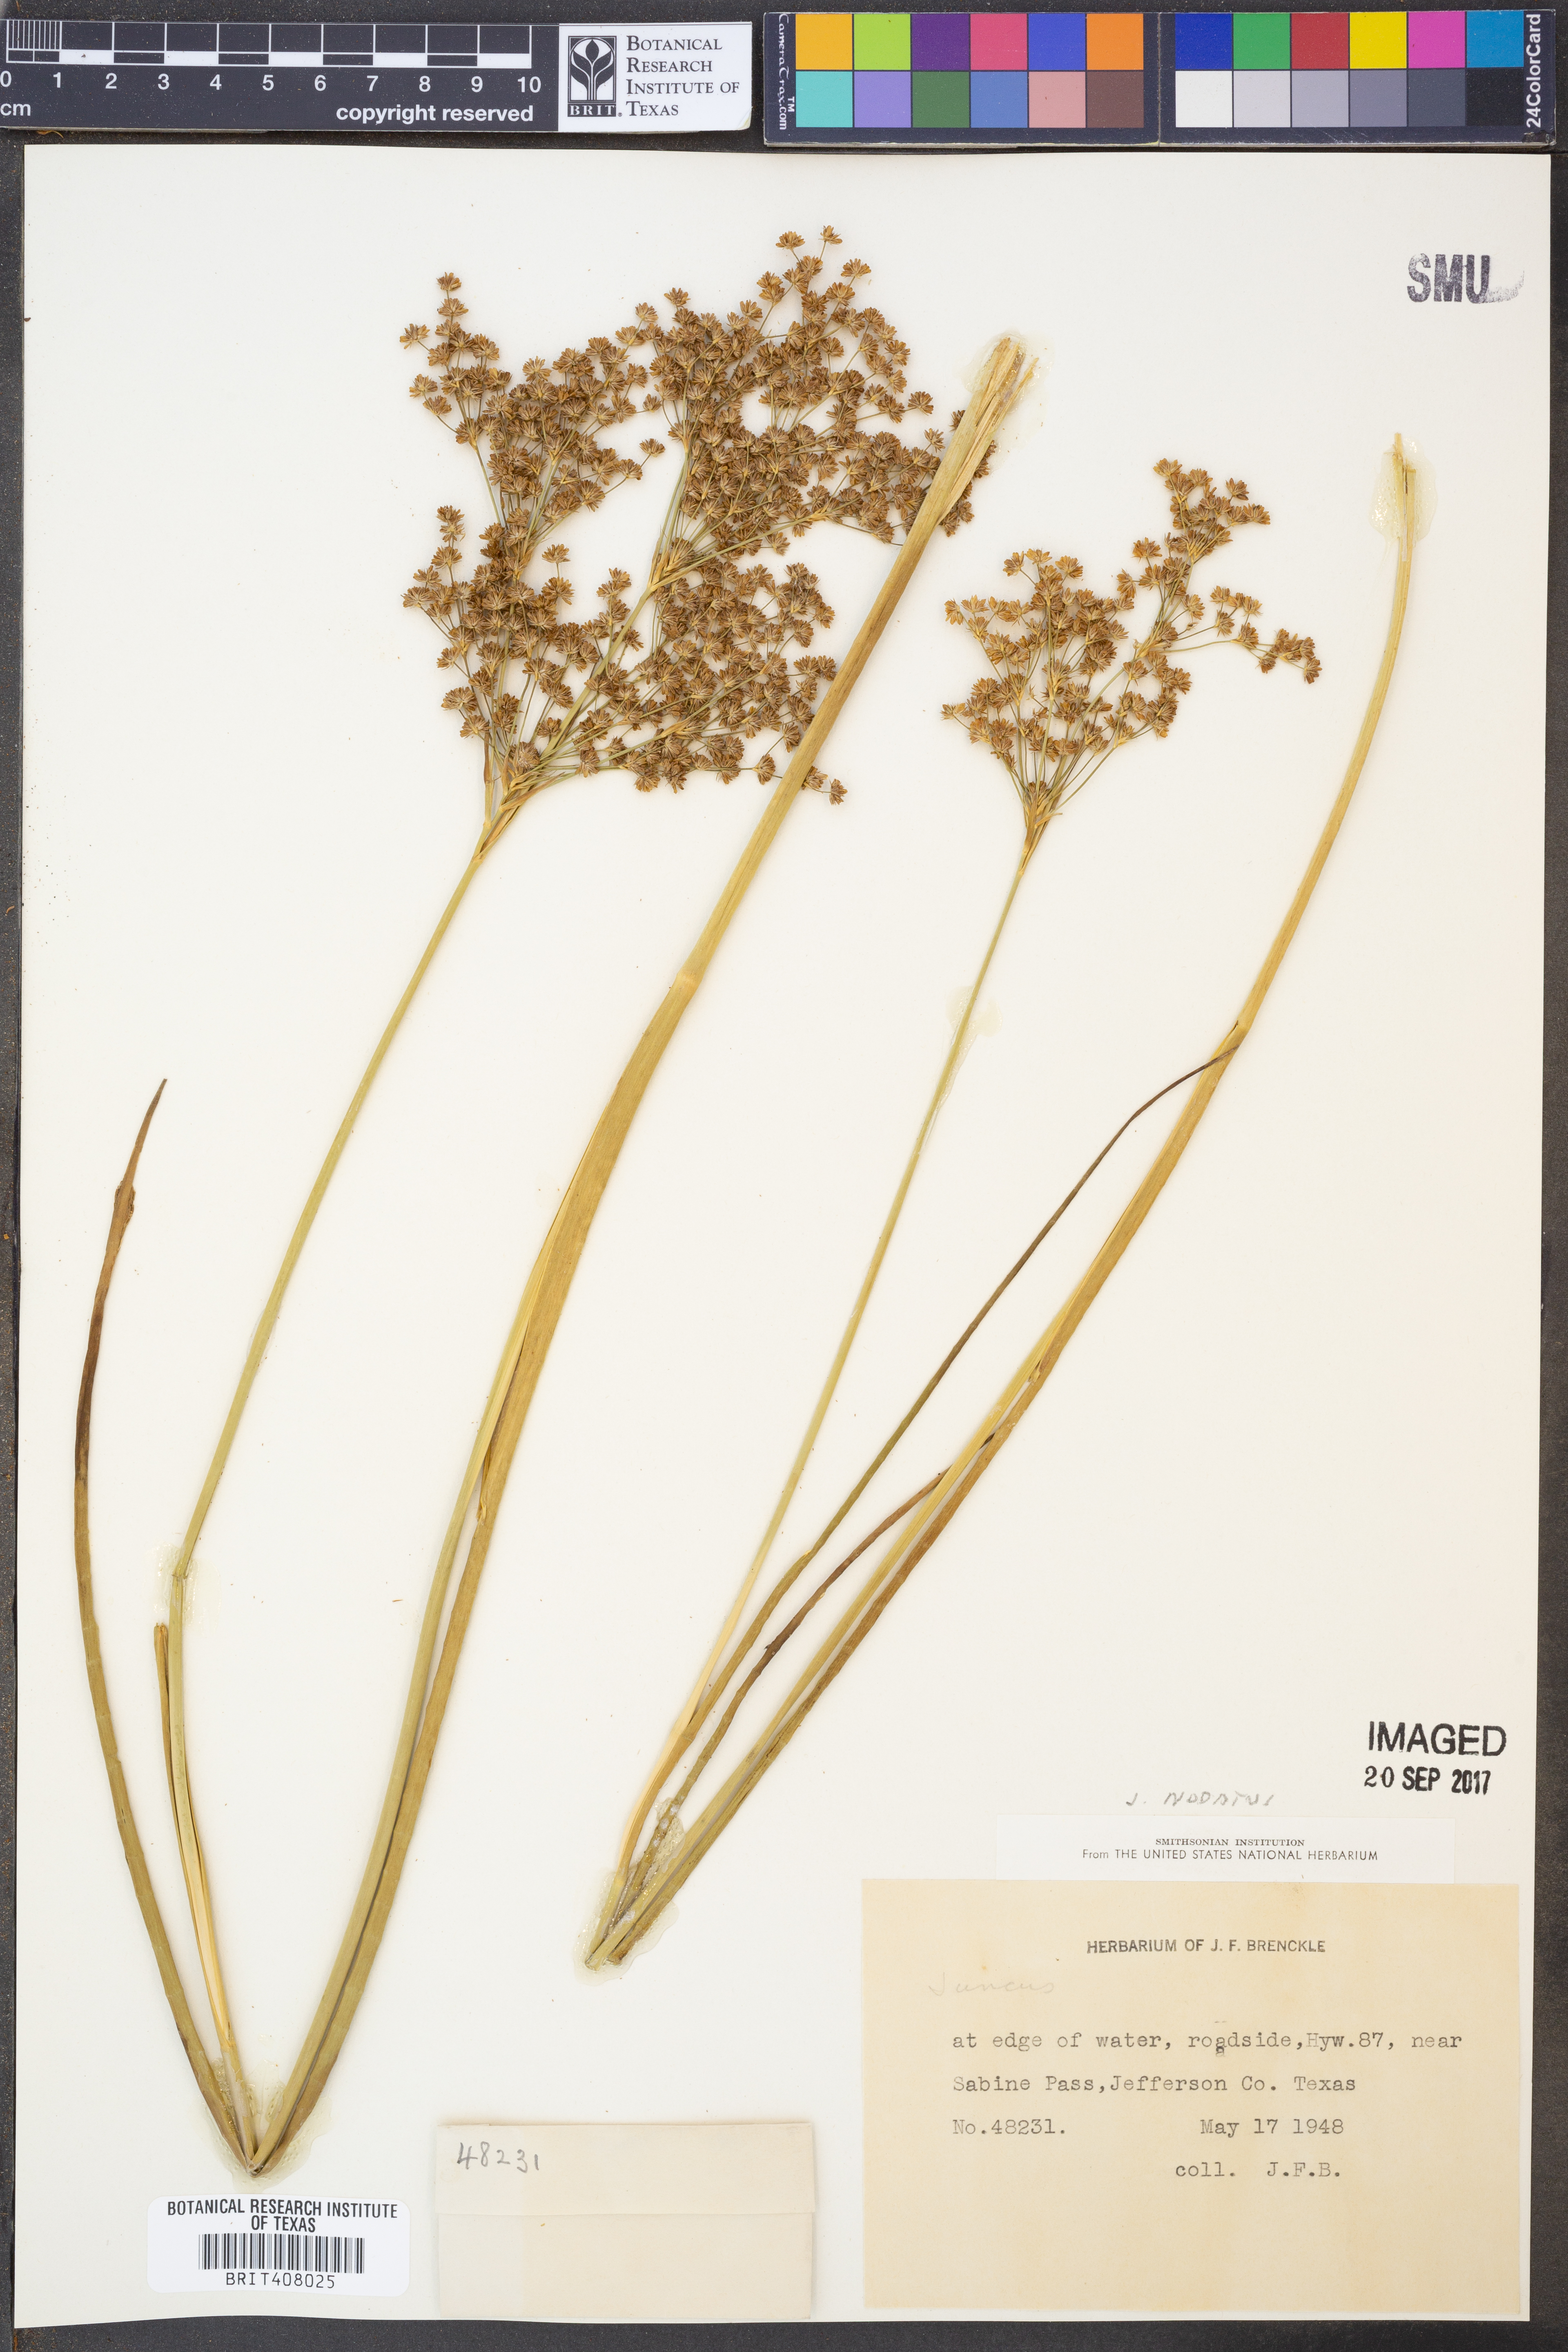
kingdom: Plantae
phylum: Tracheophyta
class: Liliopsida
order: Poales
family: Juncaceae
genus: Juncus
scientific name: Juncus
